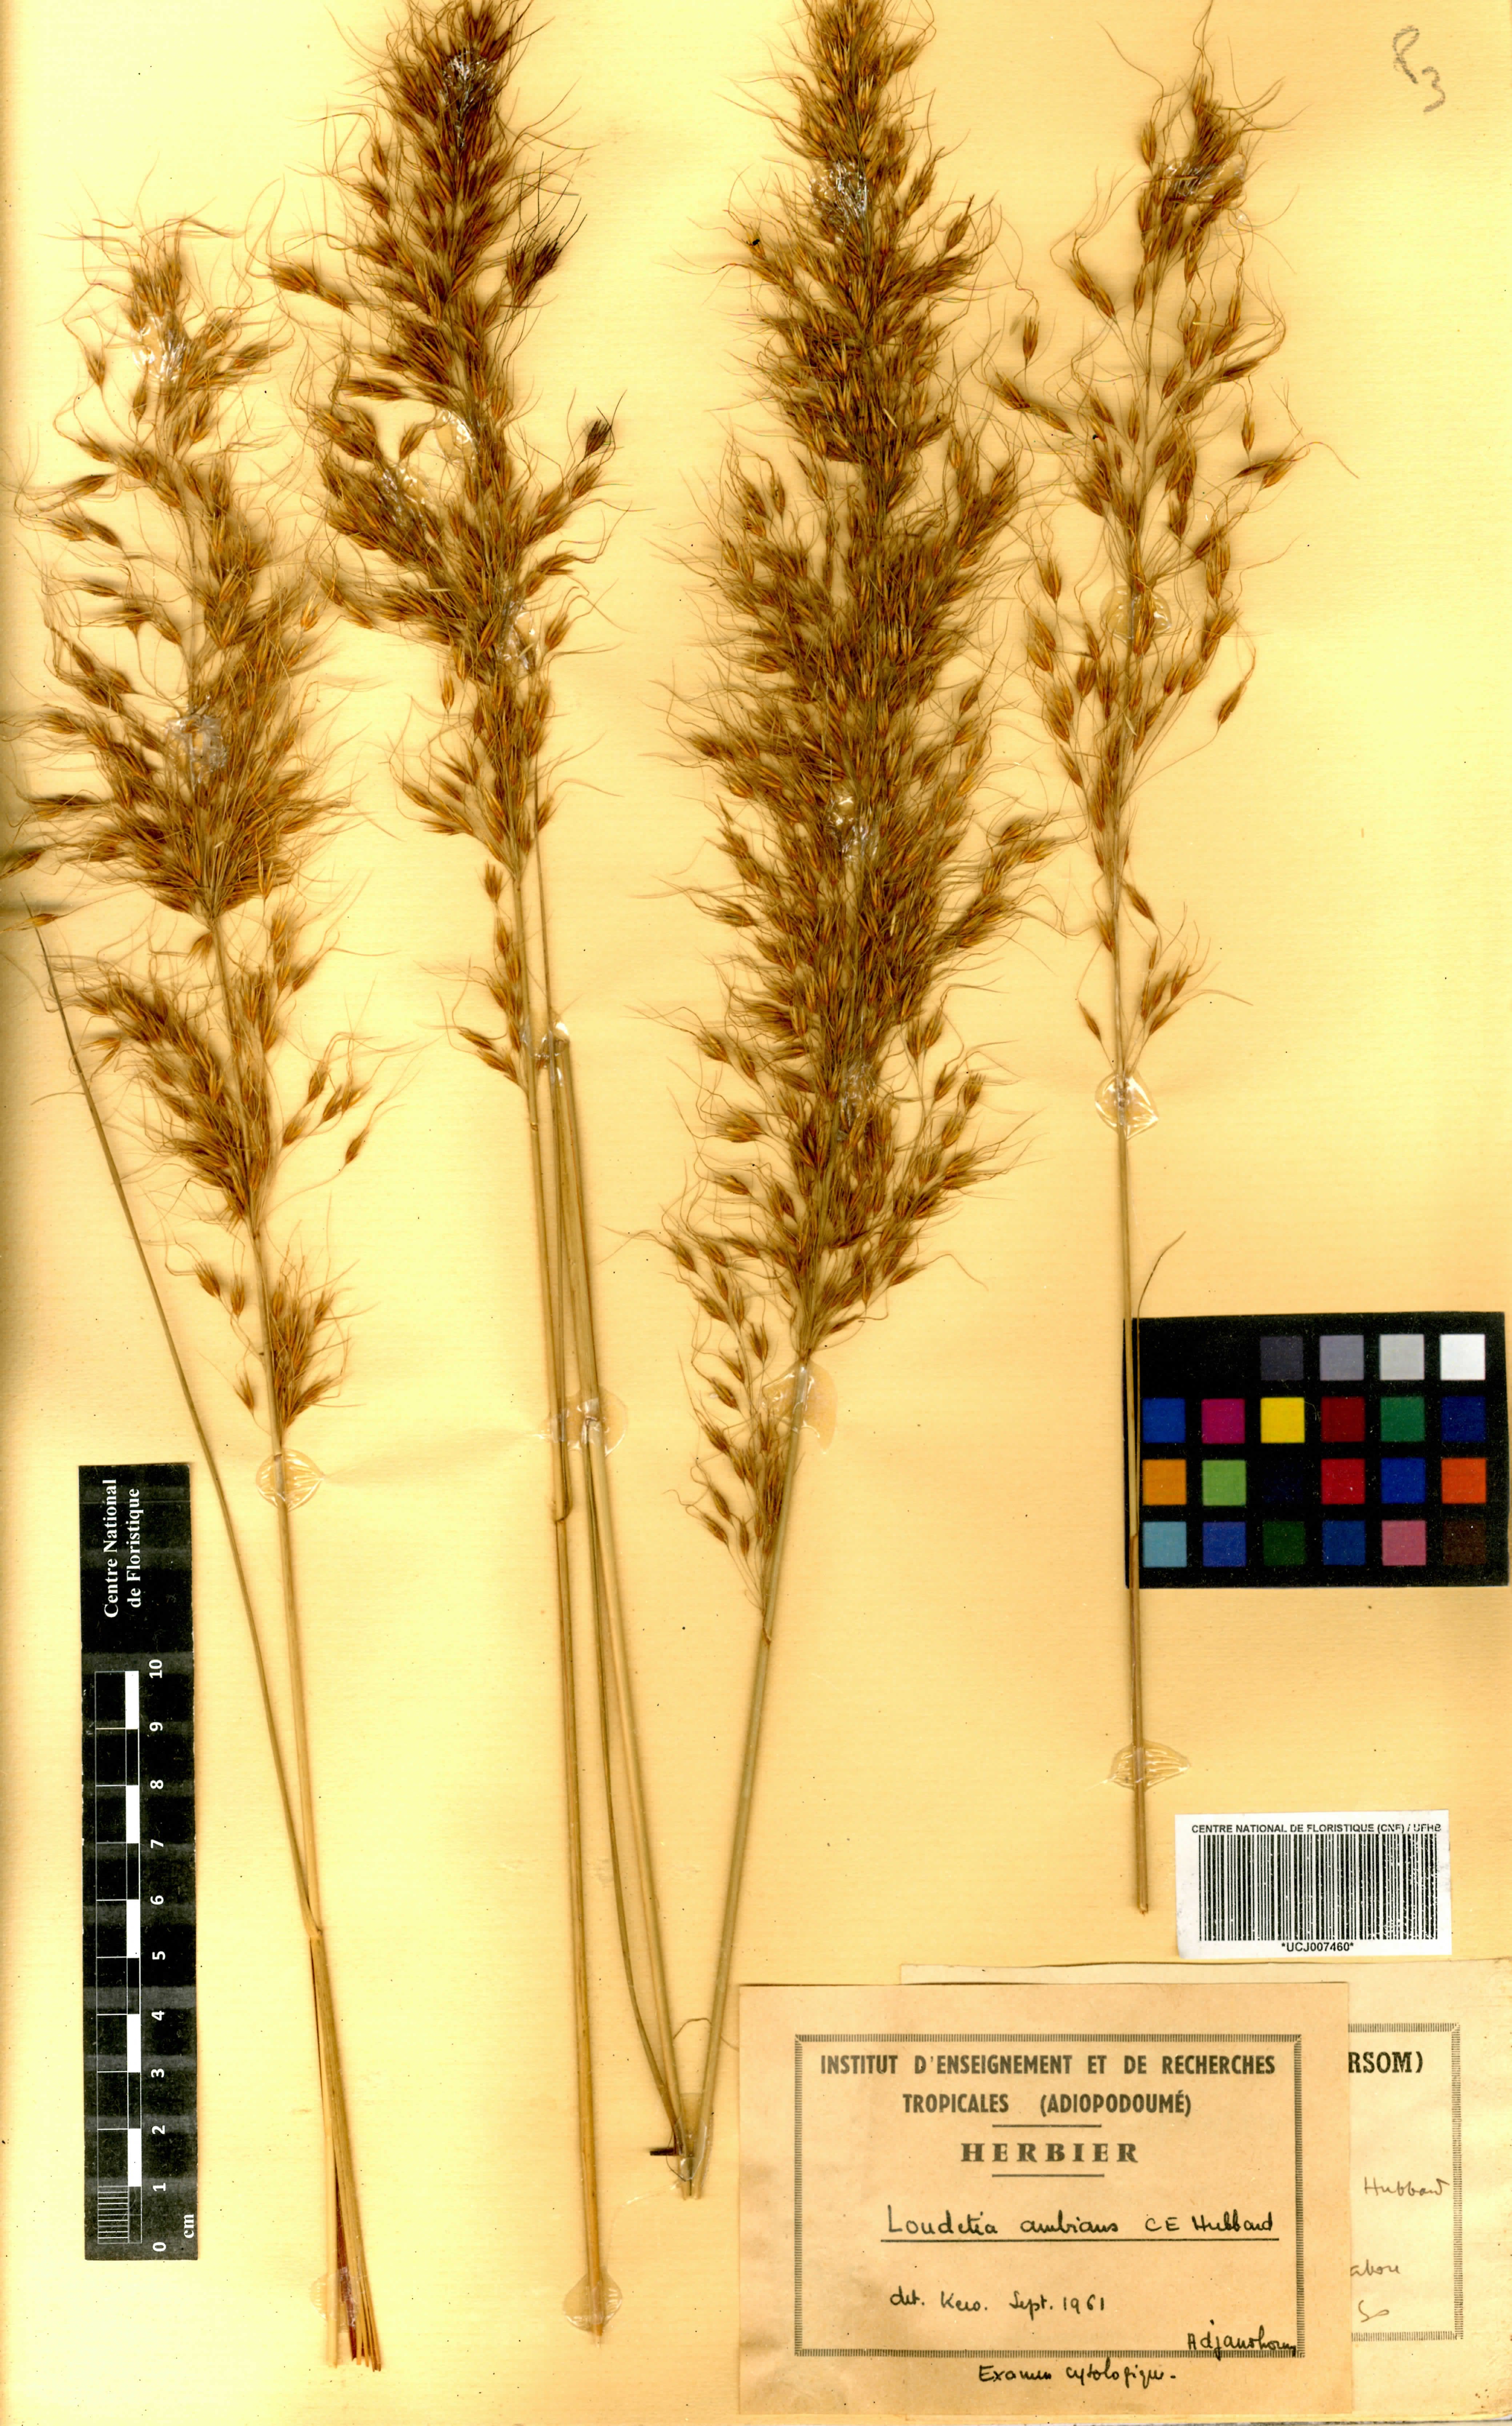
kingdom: Plantae
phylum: Tracheophyta
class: Liliopsida
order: Poales
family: Poaceae
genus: Loudetiopsis
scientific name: Loudetiopsis ambiens
